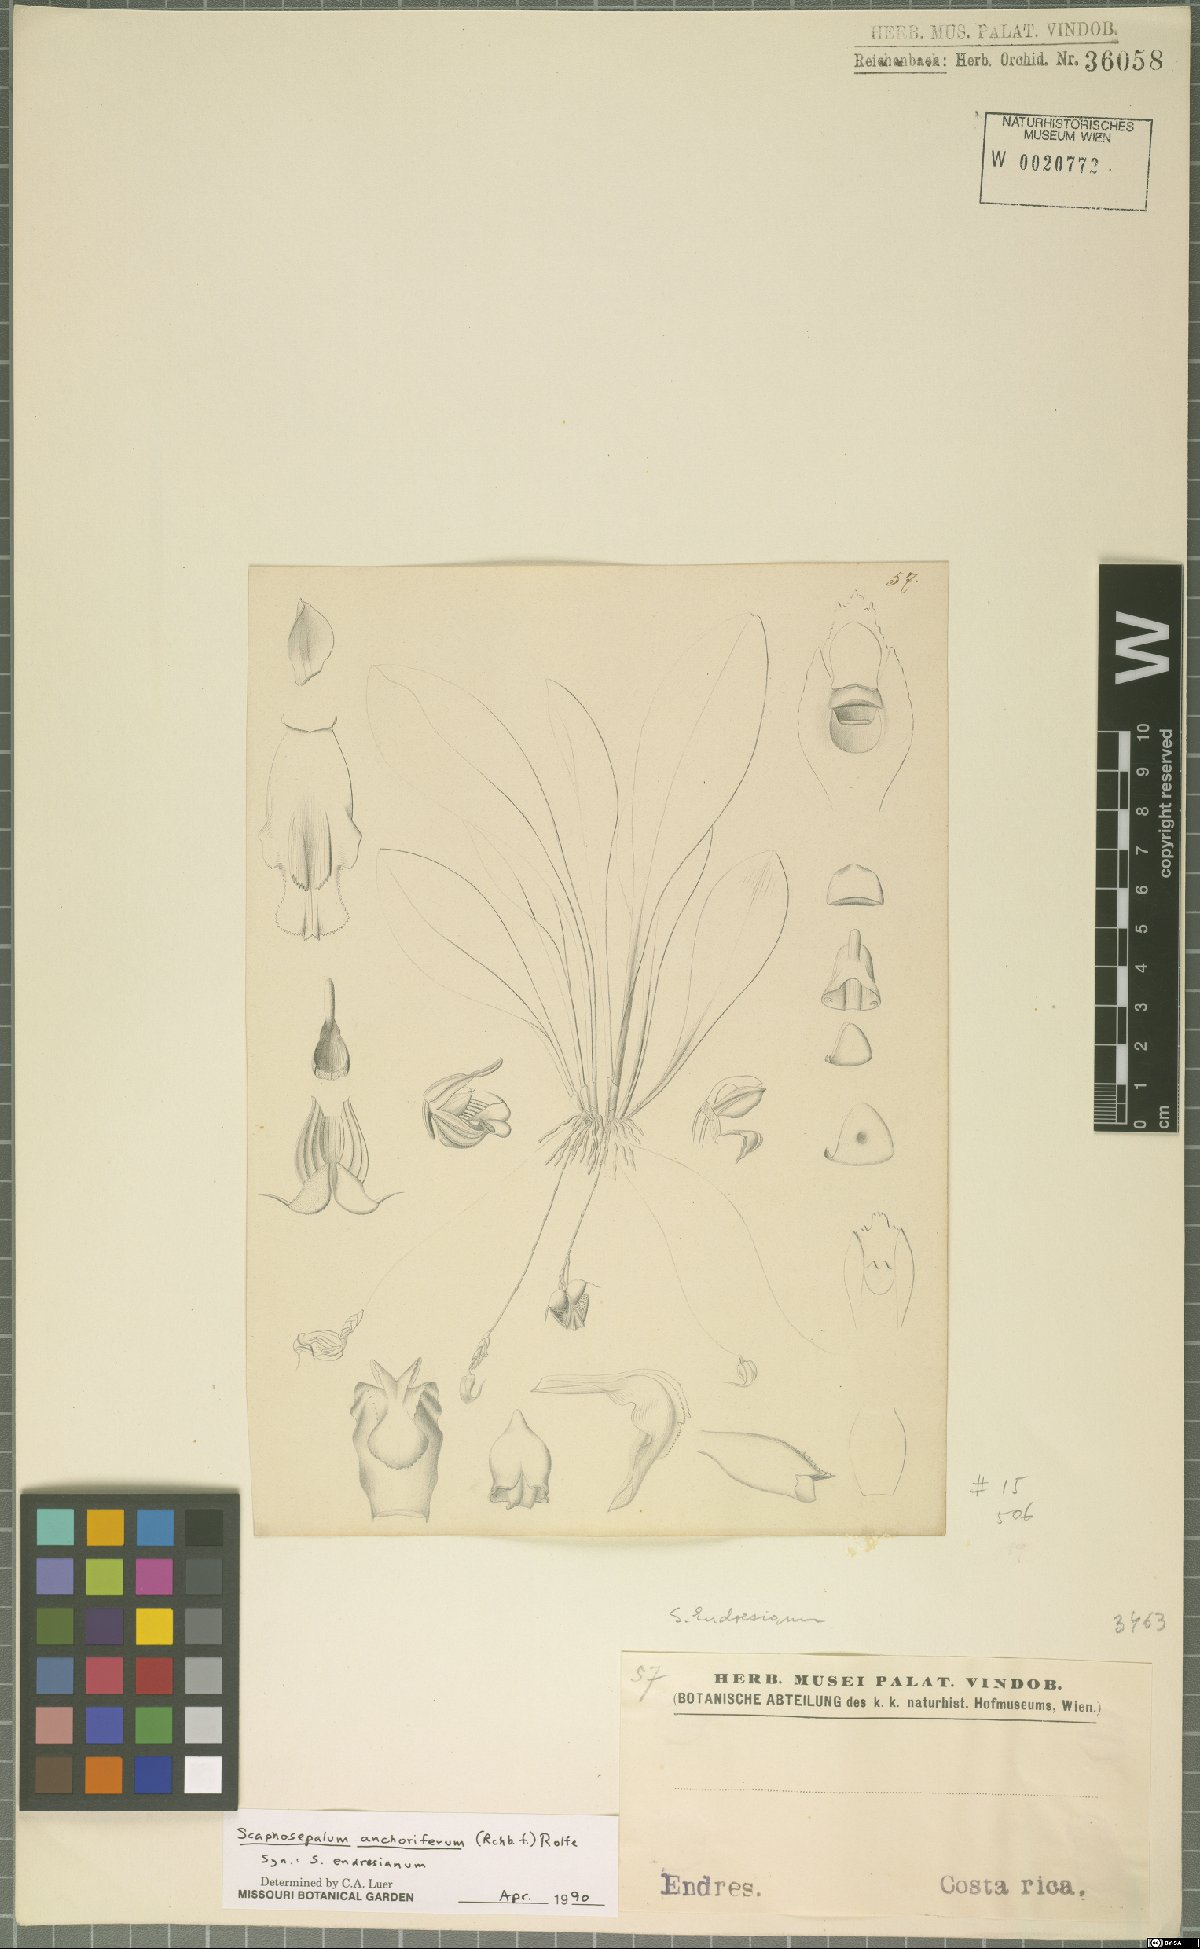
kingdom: Plantae
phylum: Tracheophyta
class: Liliopsida
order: Asparagales
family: Orchidaceae
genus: Scaphosepalum
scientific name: Scaphosepalum anchoriferum
